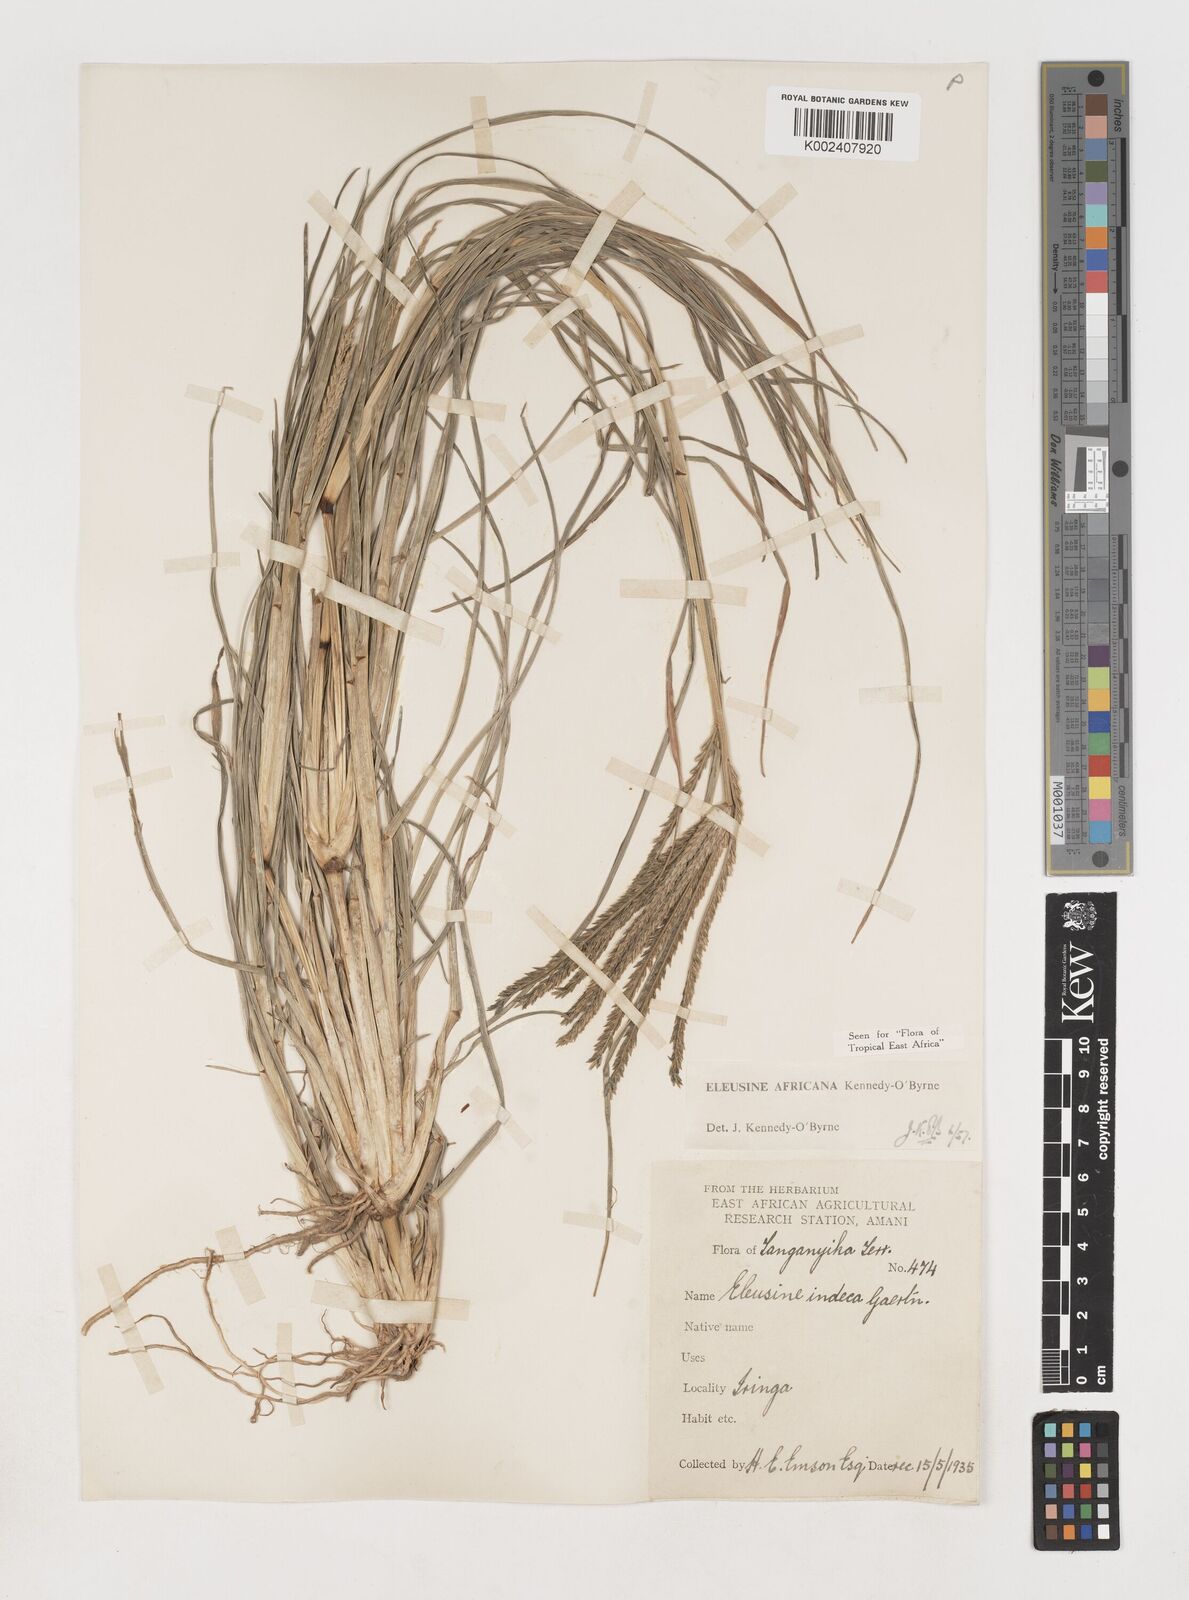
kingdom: Plantae
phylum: Tracheophyta
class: Liliopsida
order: Poales
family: Poaceae
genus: Eleusine
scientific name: Eleusine africana
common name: Wild african finger millet
